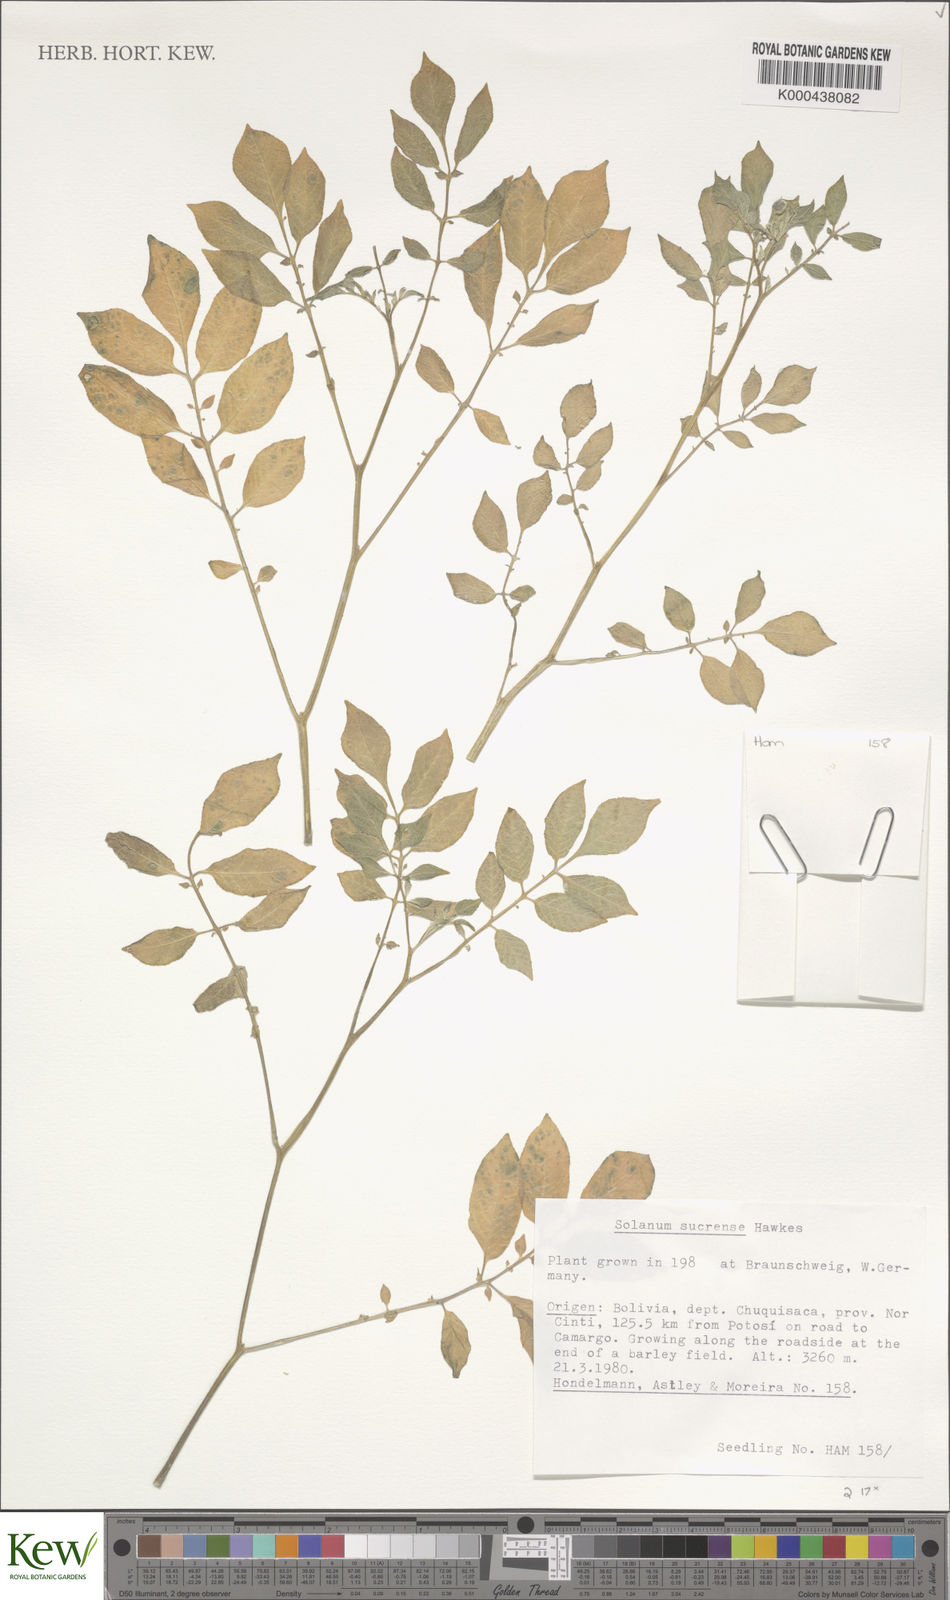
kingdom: Plantae
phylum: Tracheophyta
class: Magnoliopsida
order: Solanales
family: Solanaceae
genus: Solanum
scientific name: Solanum brevicaule
